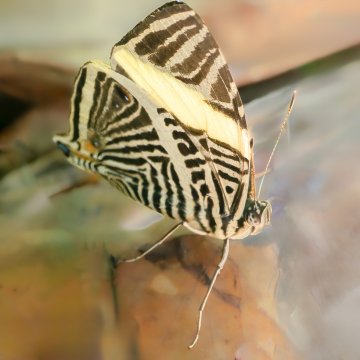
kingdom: Animalia
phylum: Arthropoda
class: Insecta
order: Lepidoptera
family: Nymphalidae
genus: Colobura
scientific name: Colobura dirce
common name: Dirce Beauty
